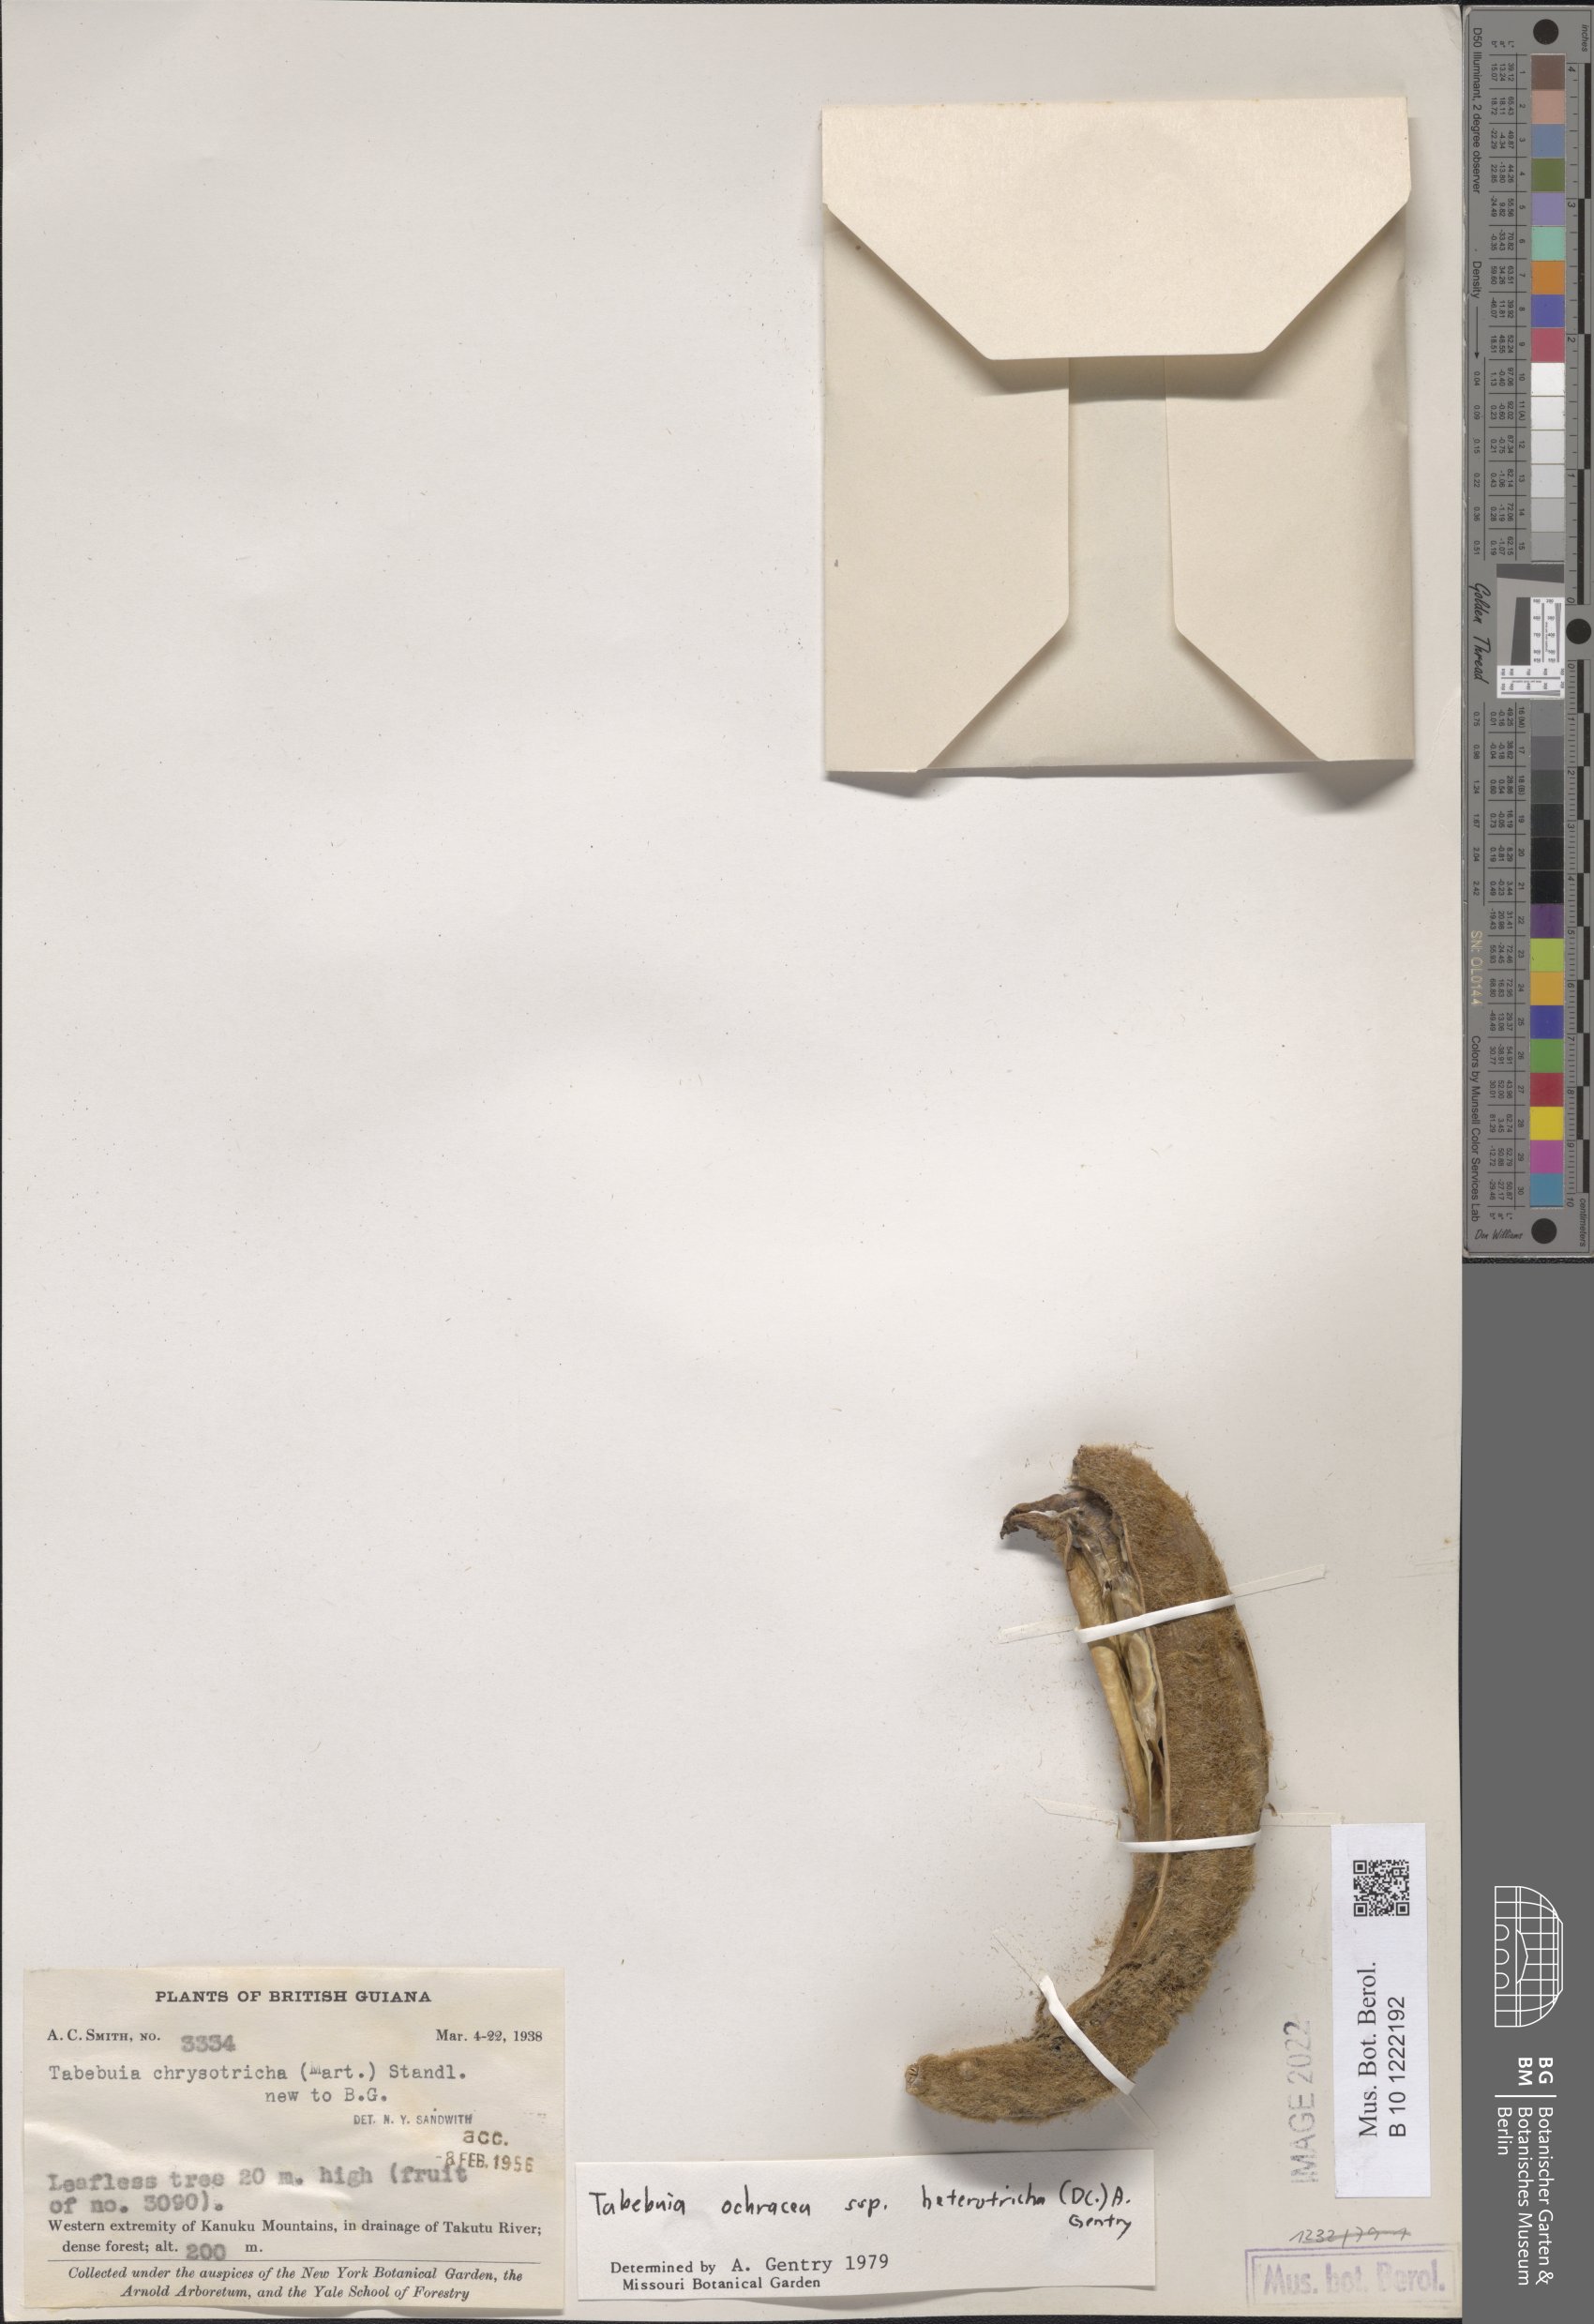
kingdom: Plantae
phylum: Tracheophyta
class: Magnoliopsida
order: Lamiales
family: Bignoniaceae
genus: Handroanthus
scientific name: Handroanthus ochraceus
